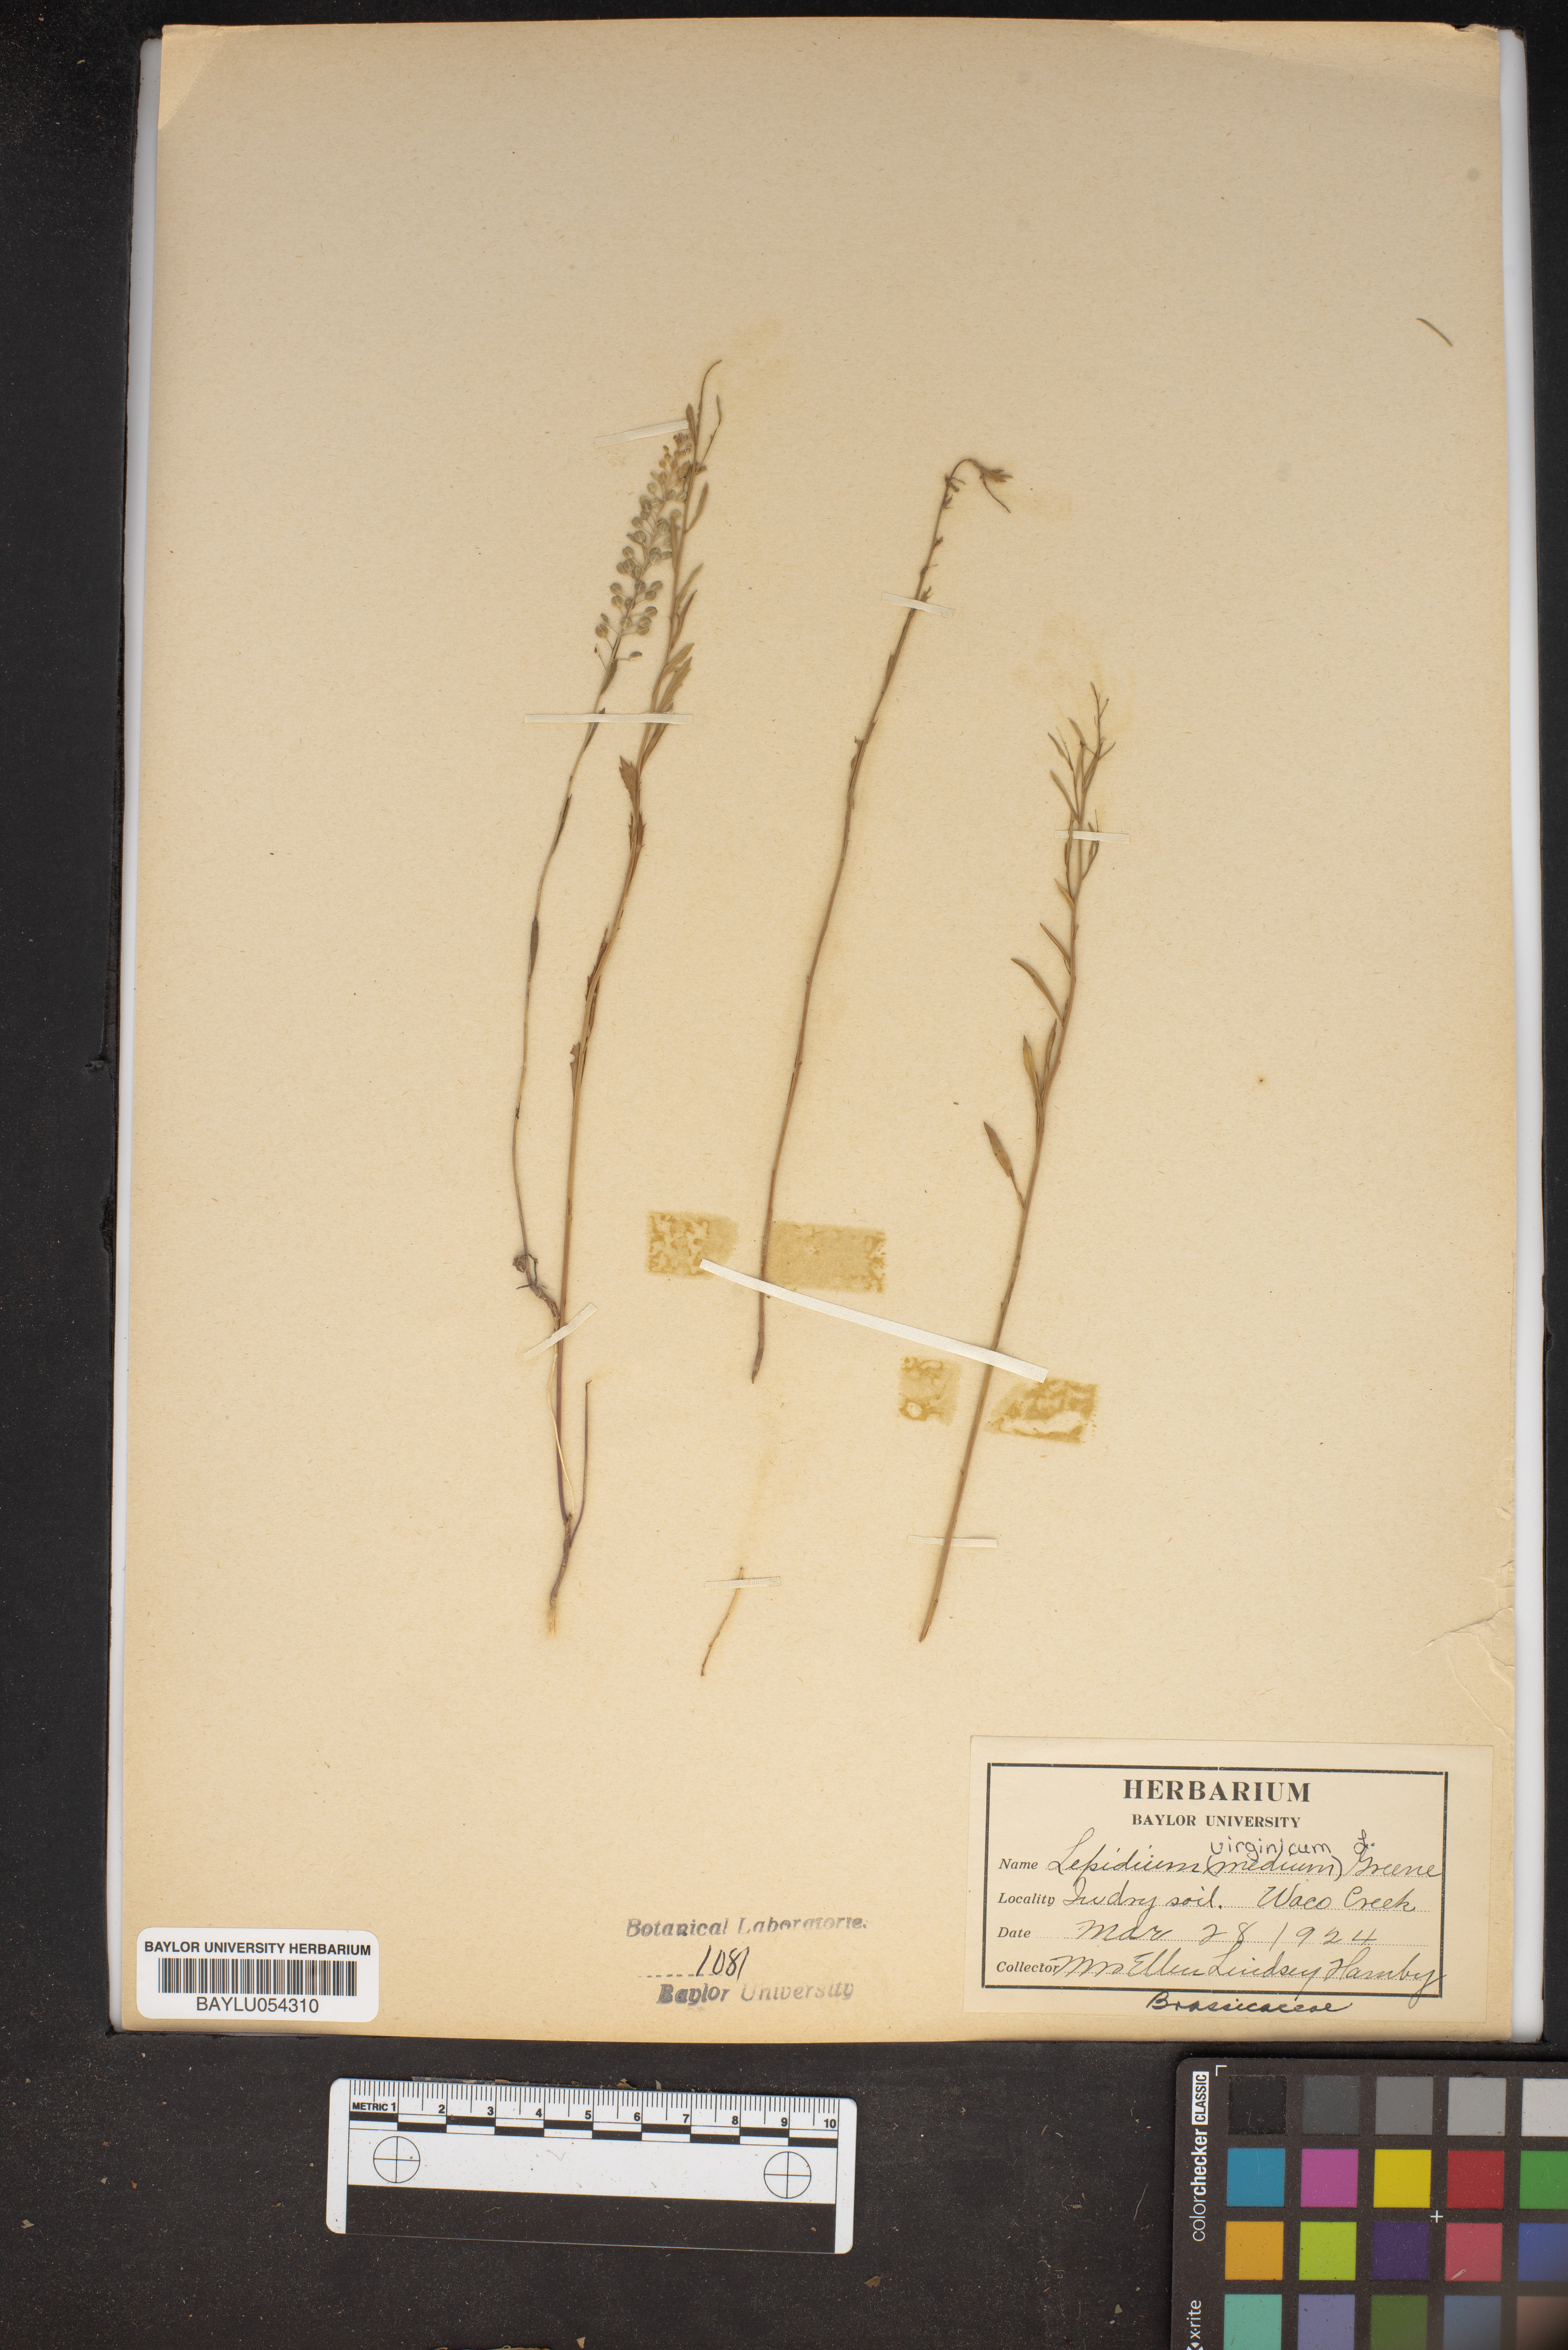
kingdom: Plantae
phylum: Tracheophyta
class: Magnoliopsida
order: Brassicales
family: Brassicaceae
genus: Lepidium
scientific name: Lepidium virginicum
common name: Least pepperwort
